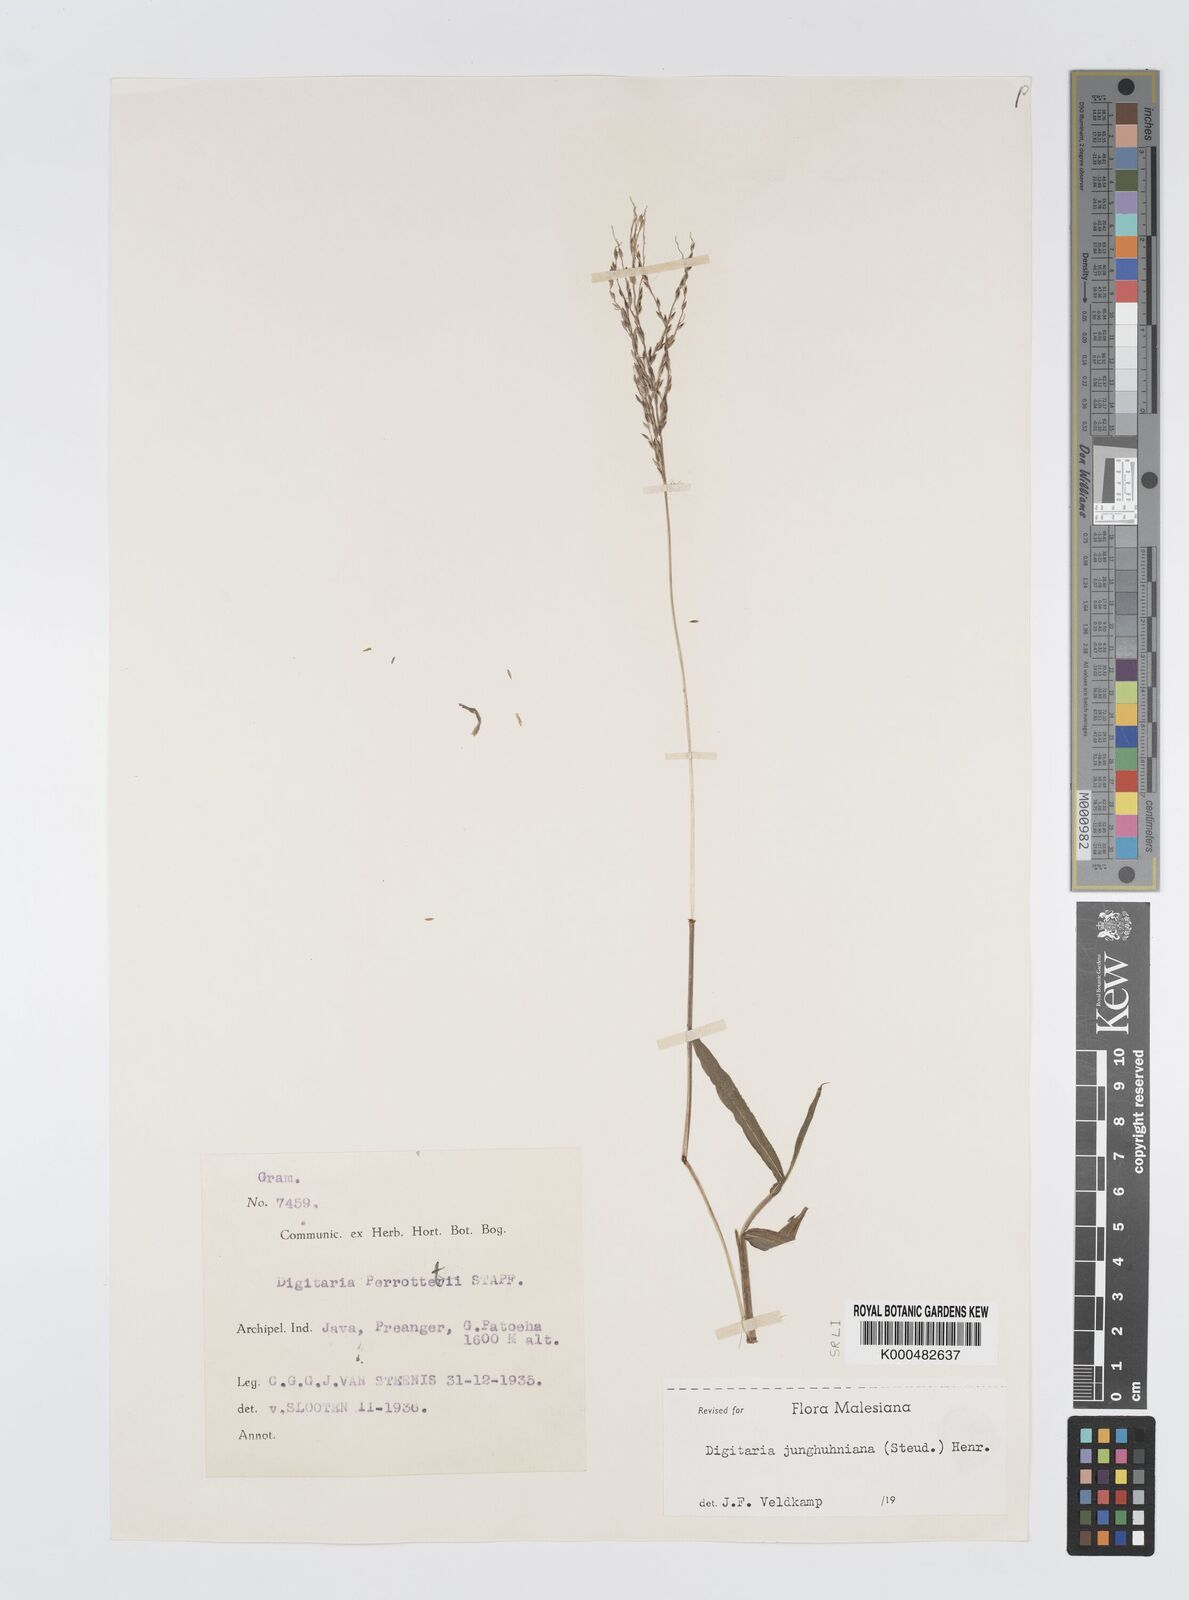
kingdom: Plantae
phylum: Tracheophyta
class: Liliopsida
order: Poales
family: Poaceae
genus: Digitaria
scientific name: Digitaria junghuhniana
